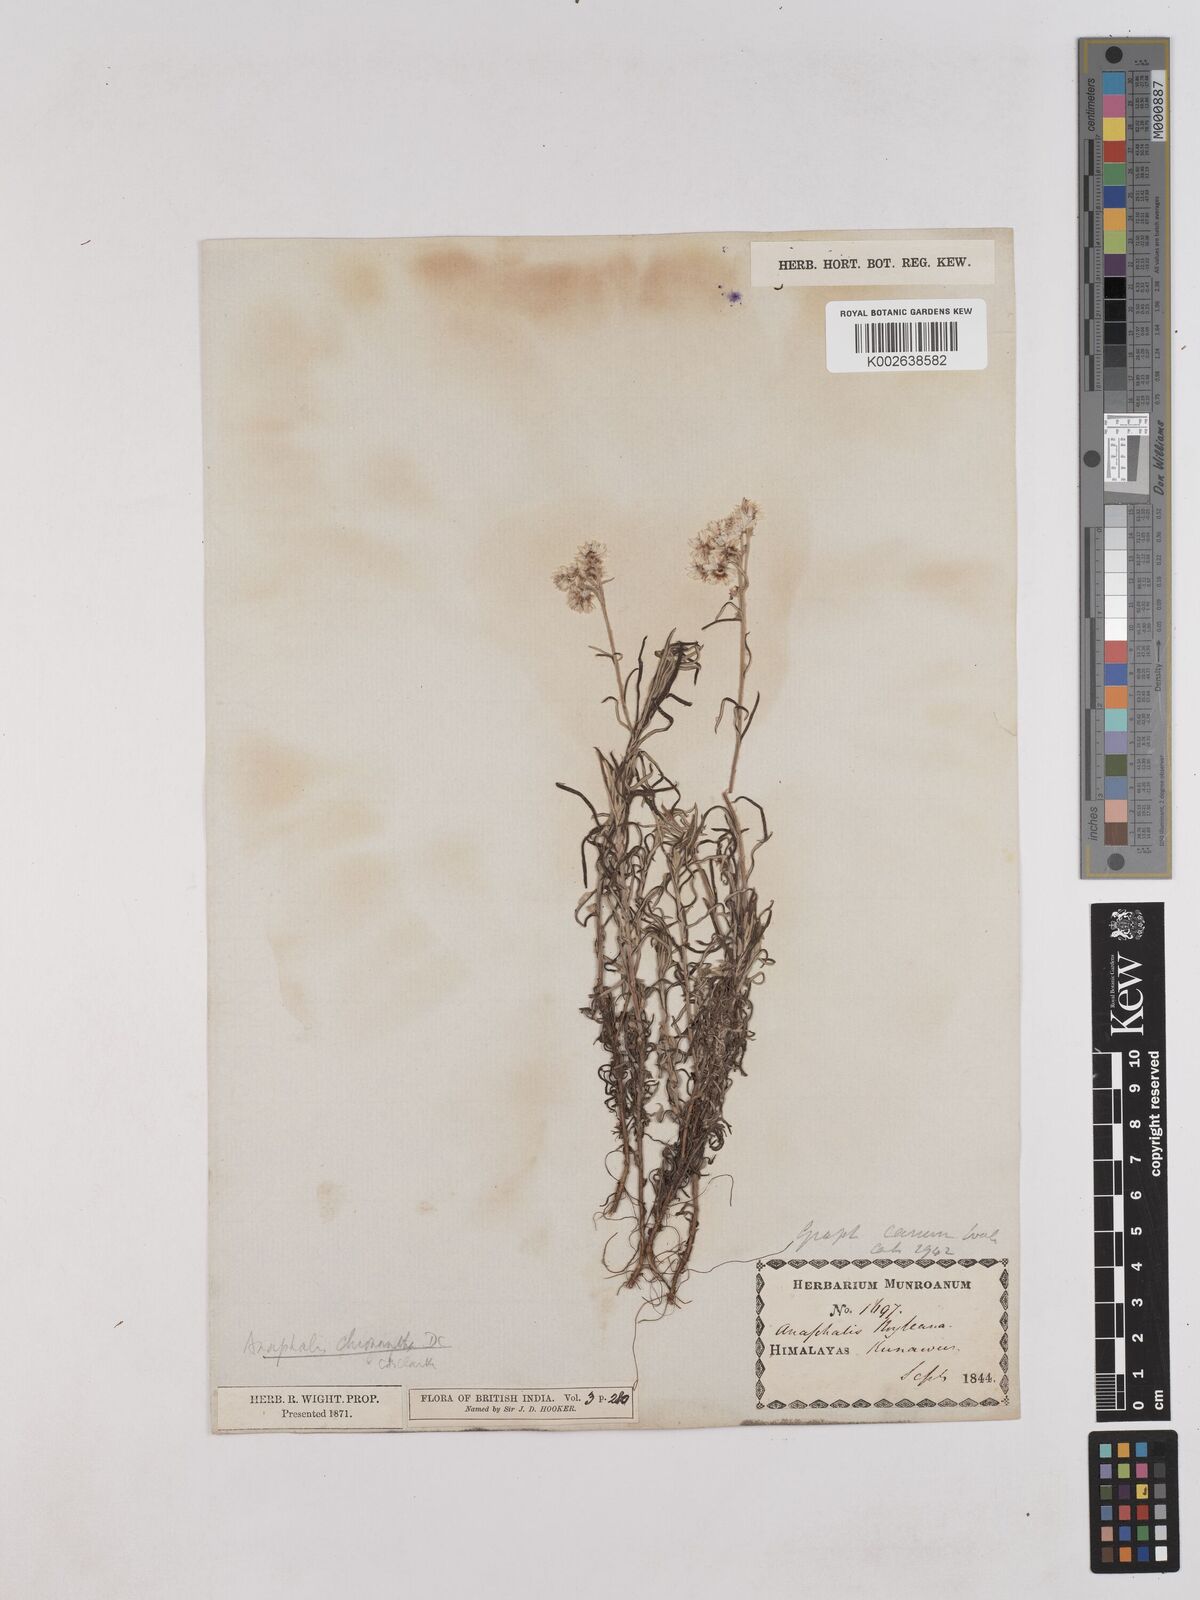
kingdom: Plantae
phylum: Tracheophyta
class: Magnoliopsida
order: Asterales
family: Asteraceae
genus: Anaphalis
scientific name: Anaphalis royleana
